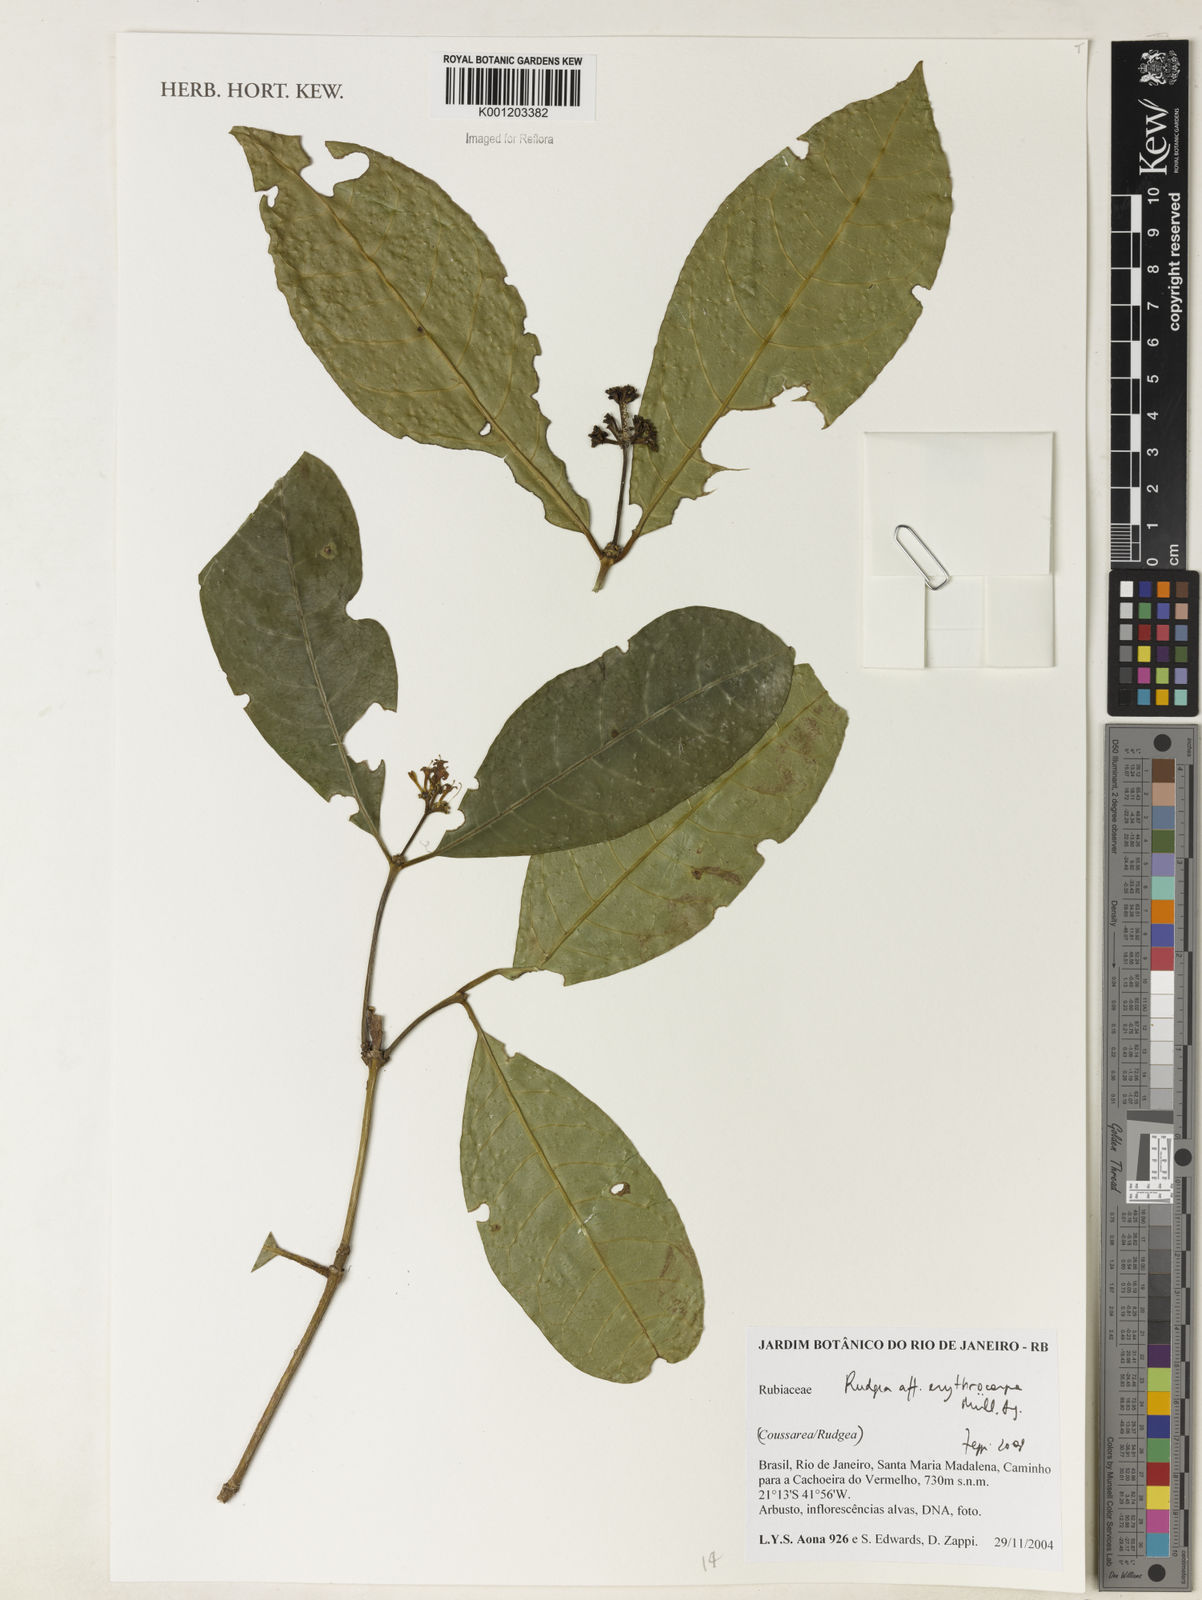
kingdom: Plantae
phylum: Tracheophyta
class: Magnoliopsida
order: Gentianales
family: Rubiaceae
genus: Rudgea
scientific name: Rudgea
